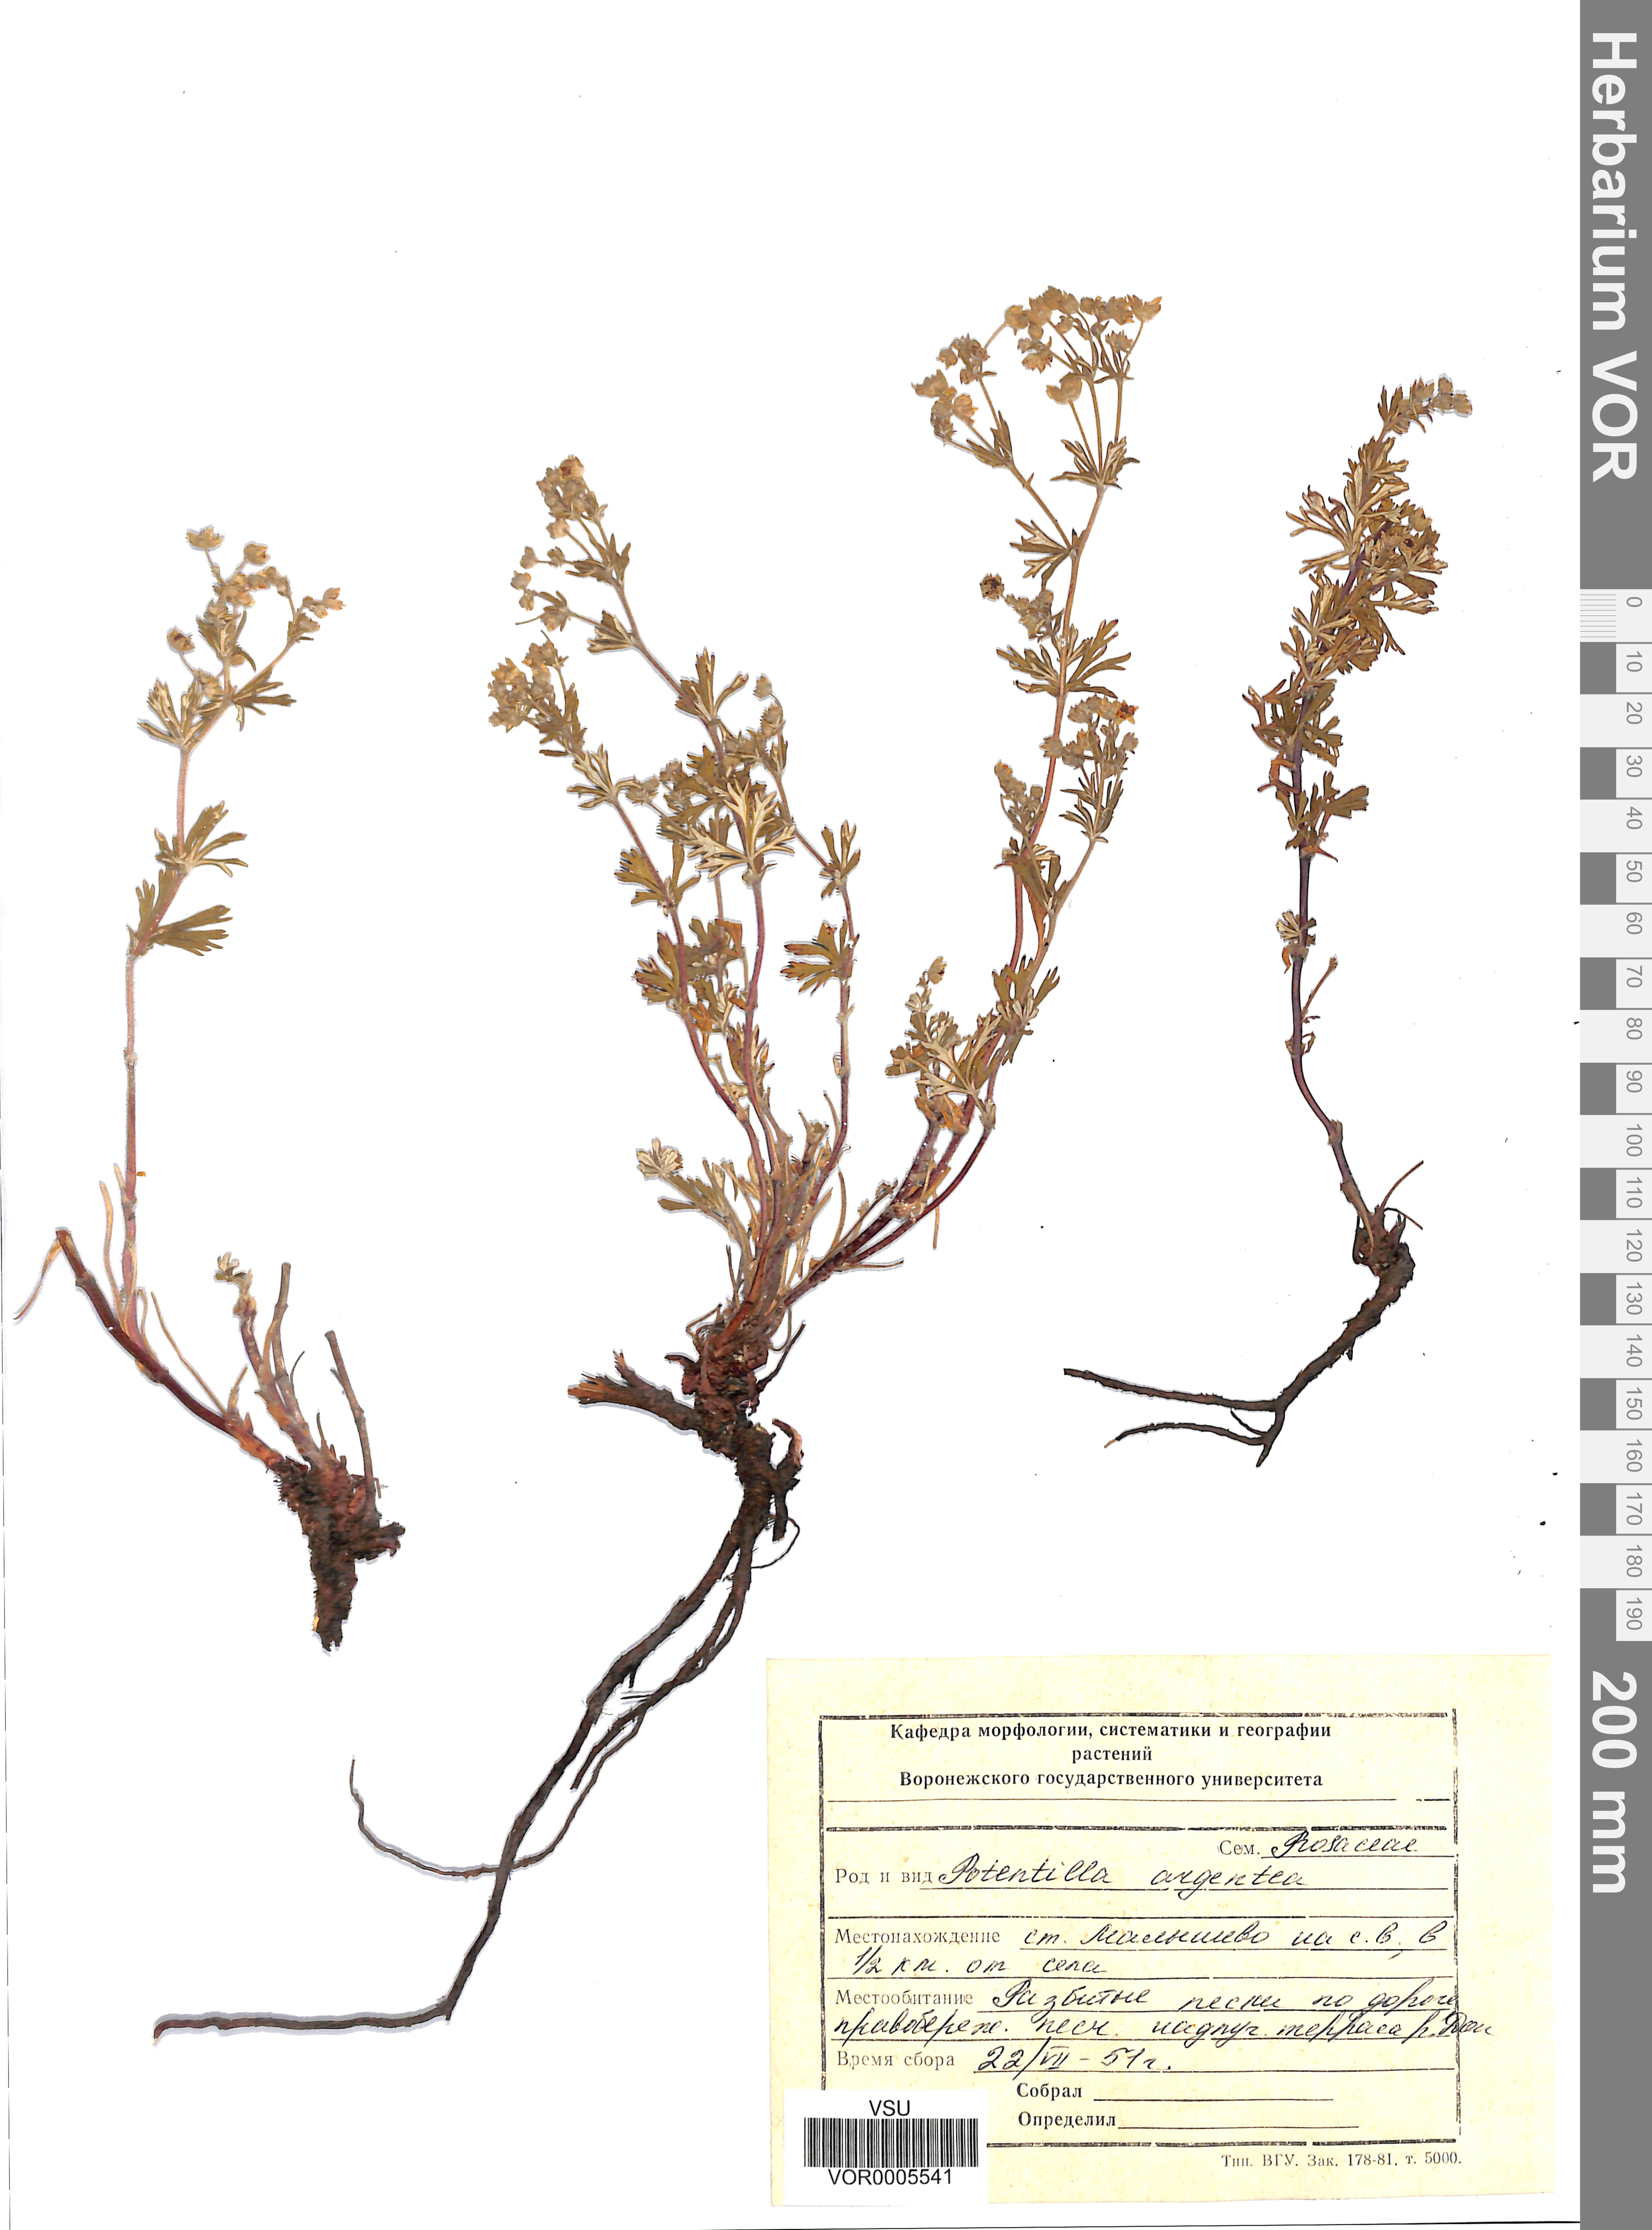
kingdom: Plantae
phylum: Tracheophyta
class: Magnoliopsida
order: Rosales
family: Rosaceae
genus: Potentilla
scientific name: Potentilla argentea
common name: Hoary cinquefoil
